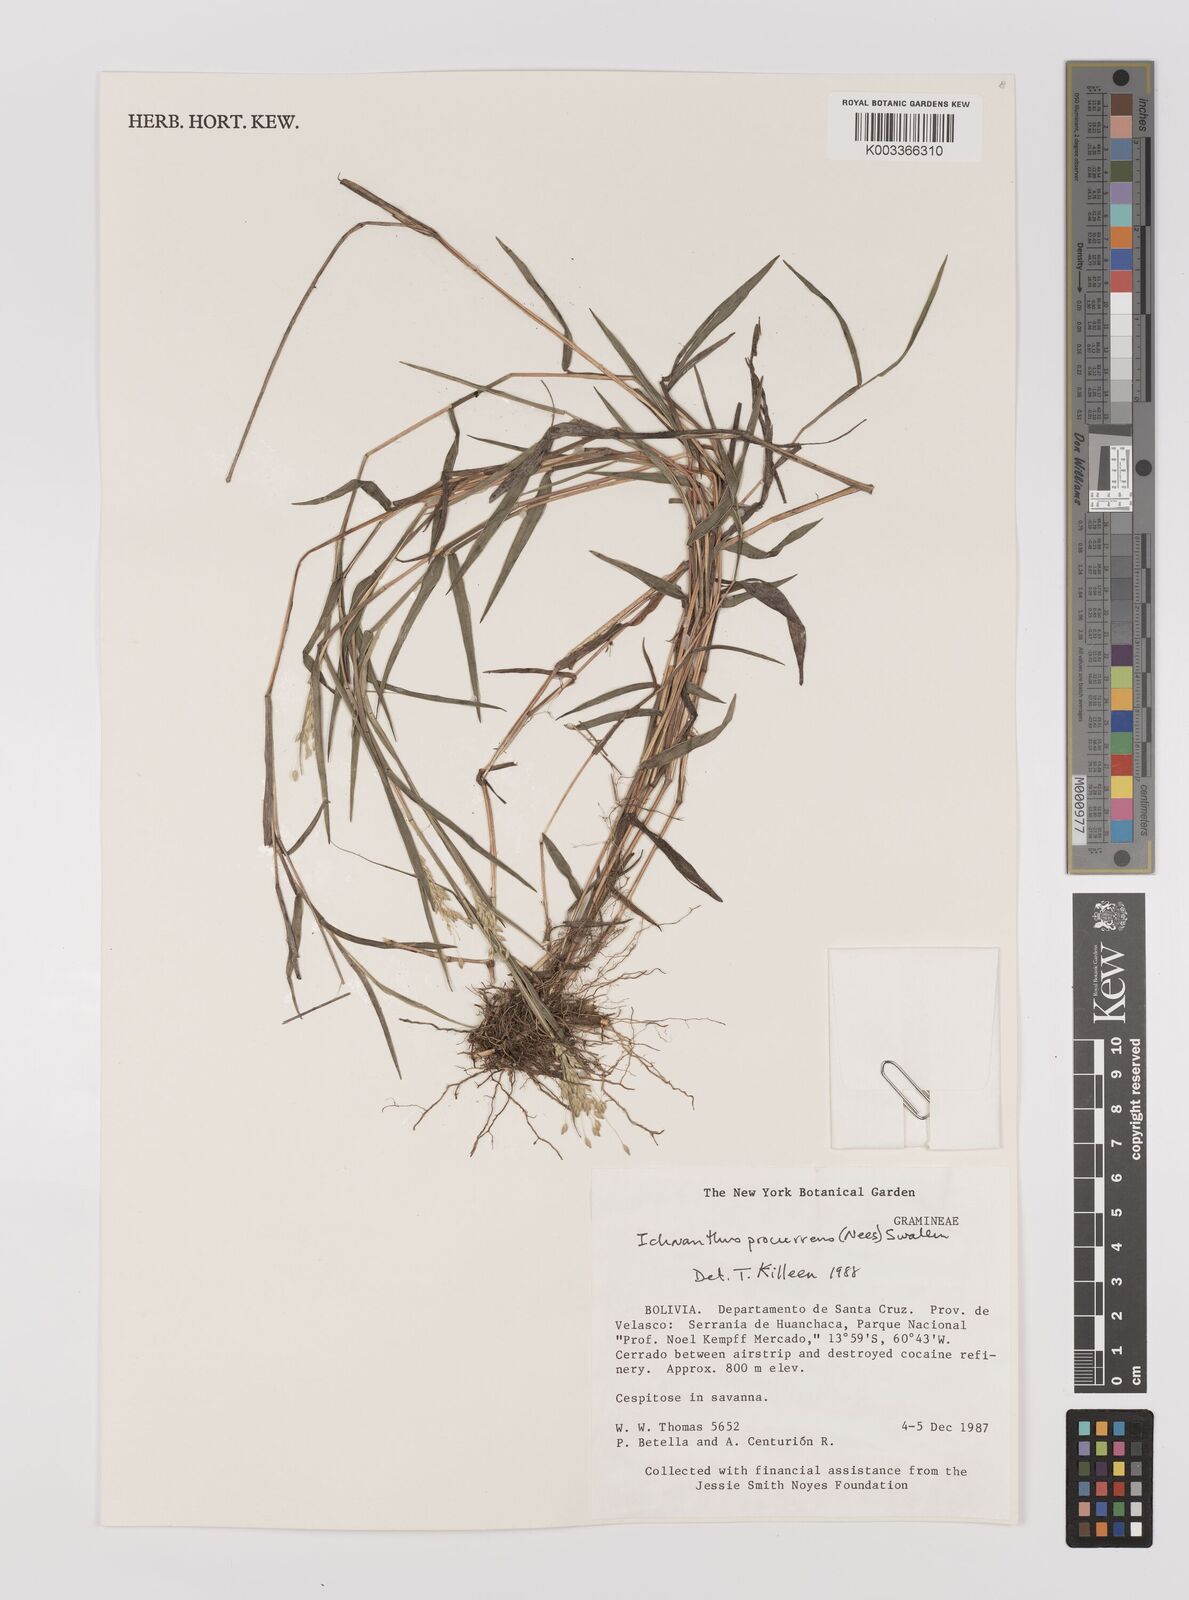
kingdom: Plantae
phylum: Tracheophyta
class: Liliopsida
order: Poales
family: Poaceae
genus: Oedochloa
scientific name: Oedochloa procurrens
